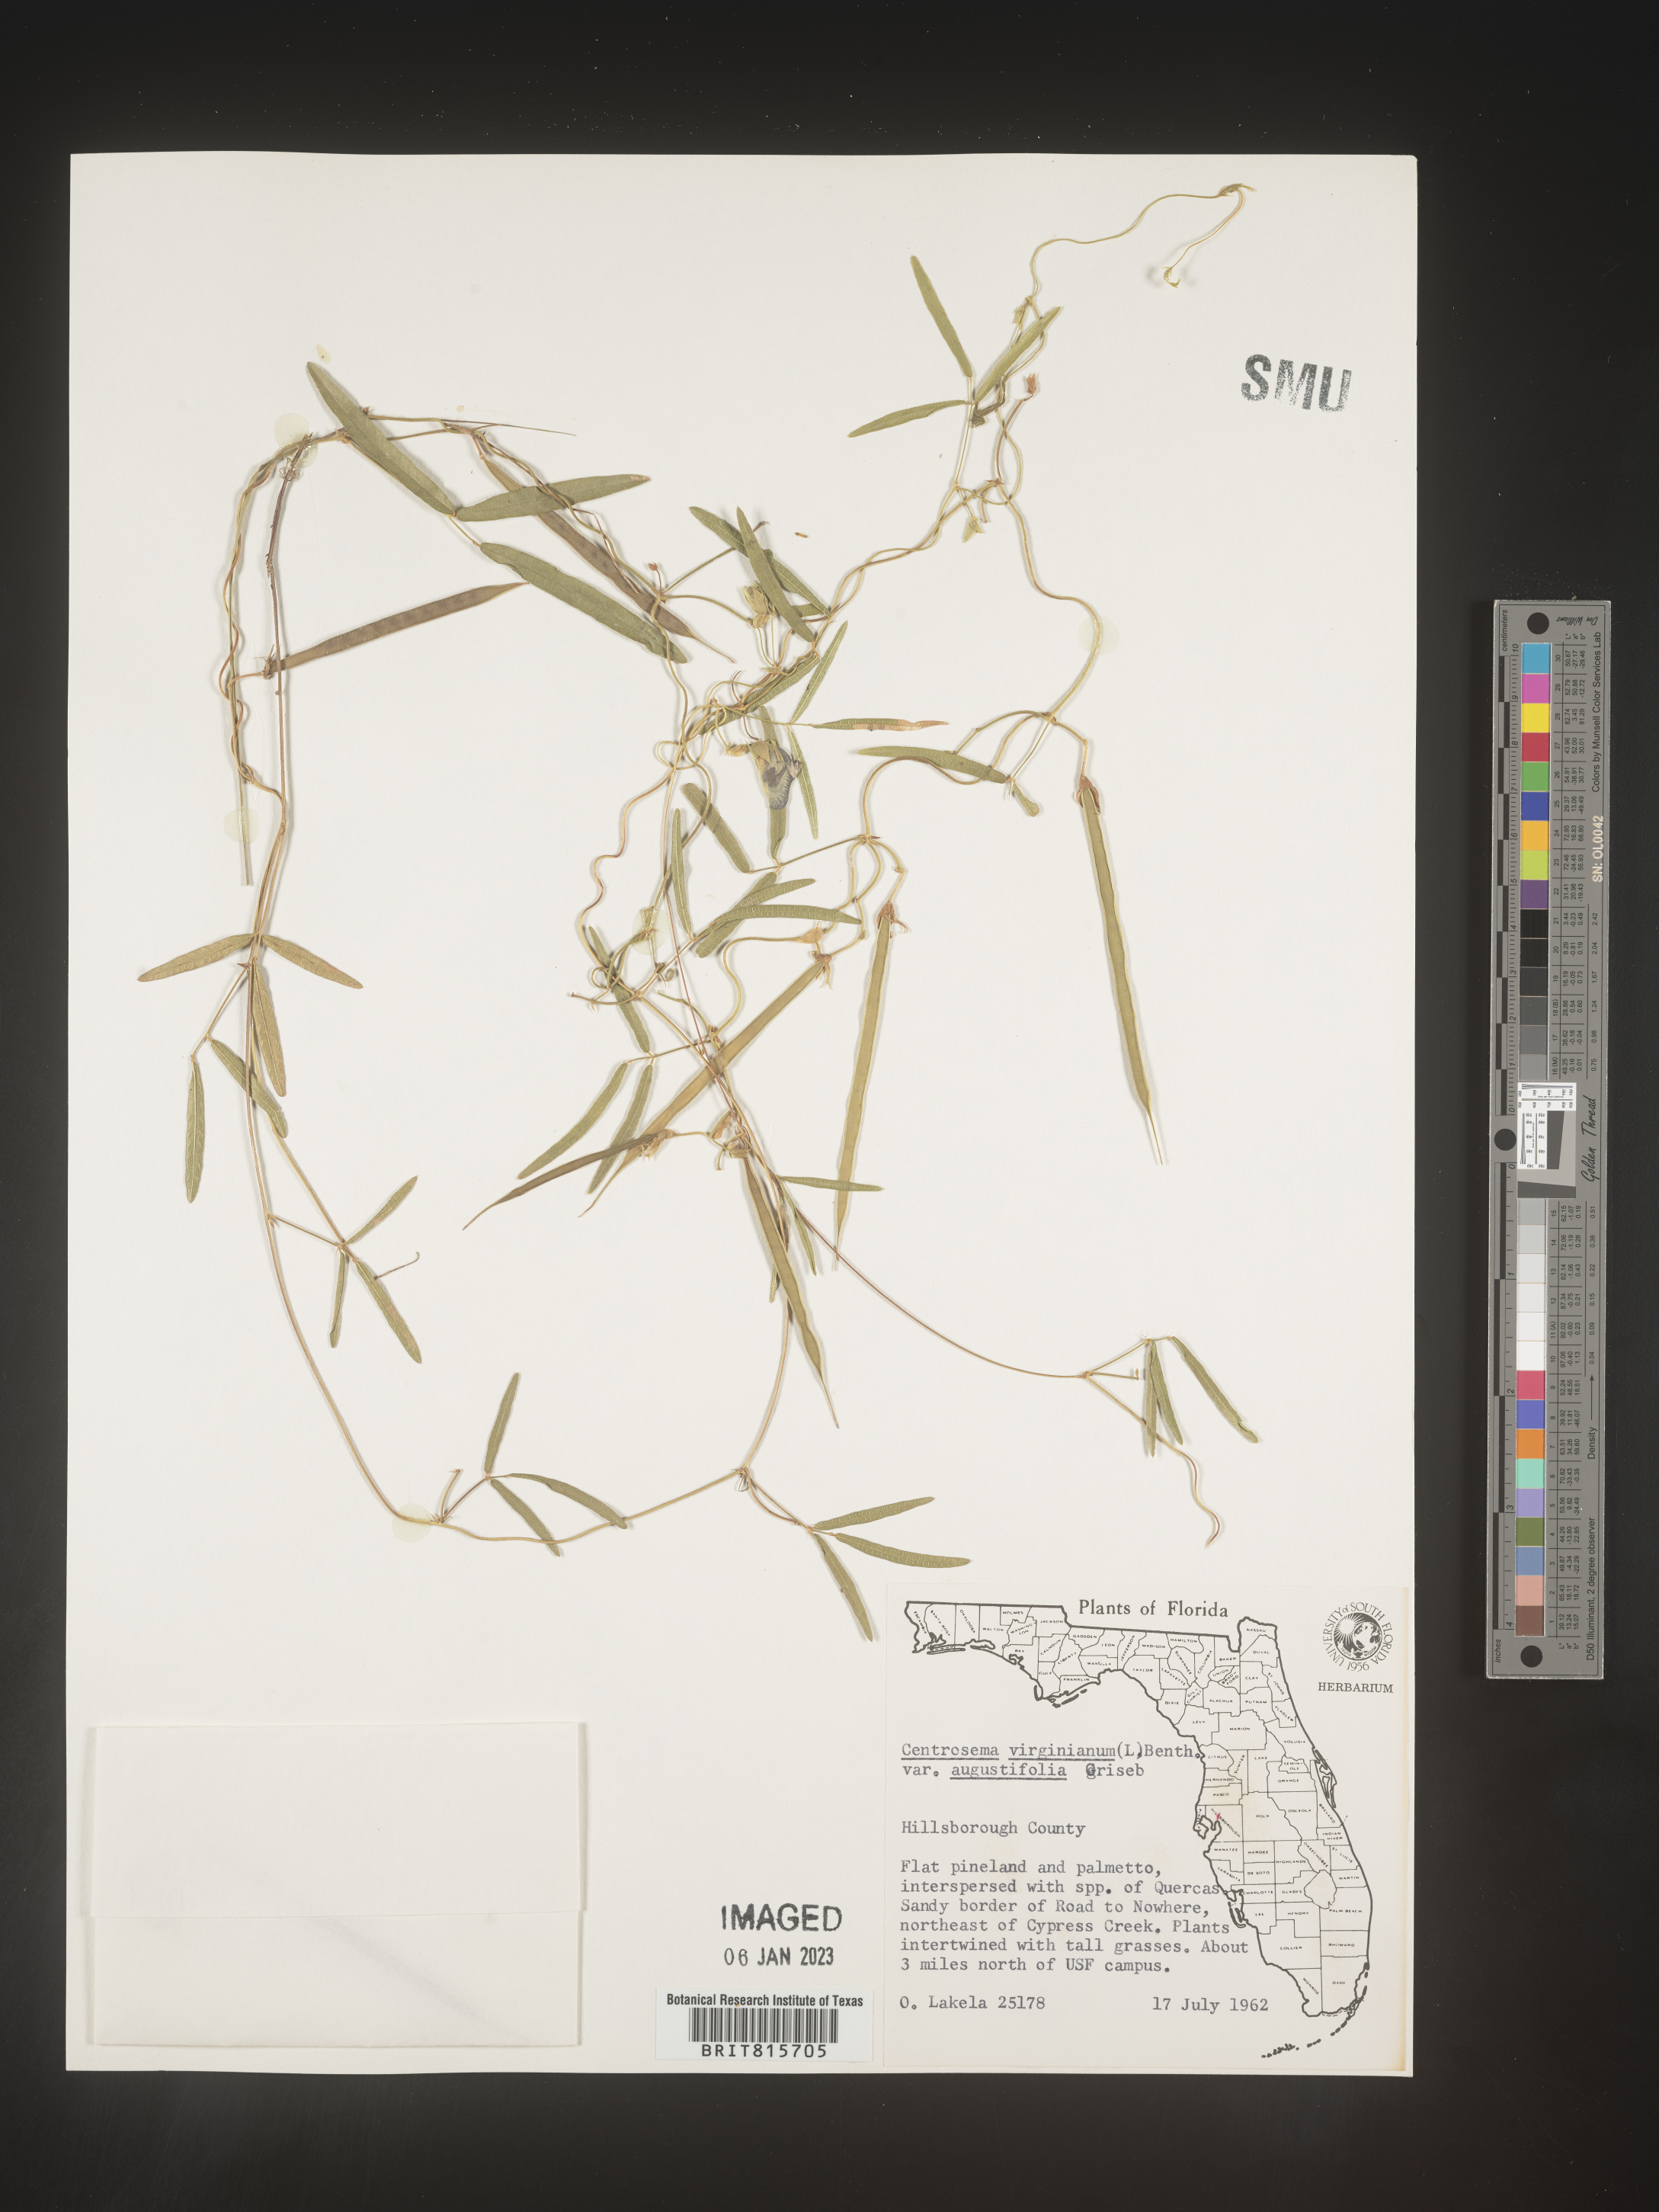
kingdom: Plantae
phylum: Tracheophyta
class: Magnoliopsida
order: Fabales
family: Fabaceae
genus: Centrosema
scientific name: Centrosema virginianum
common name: Butterfly-pea
